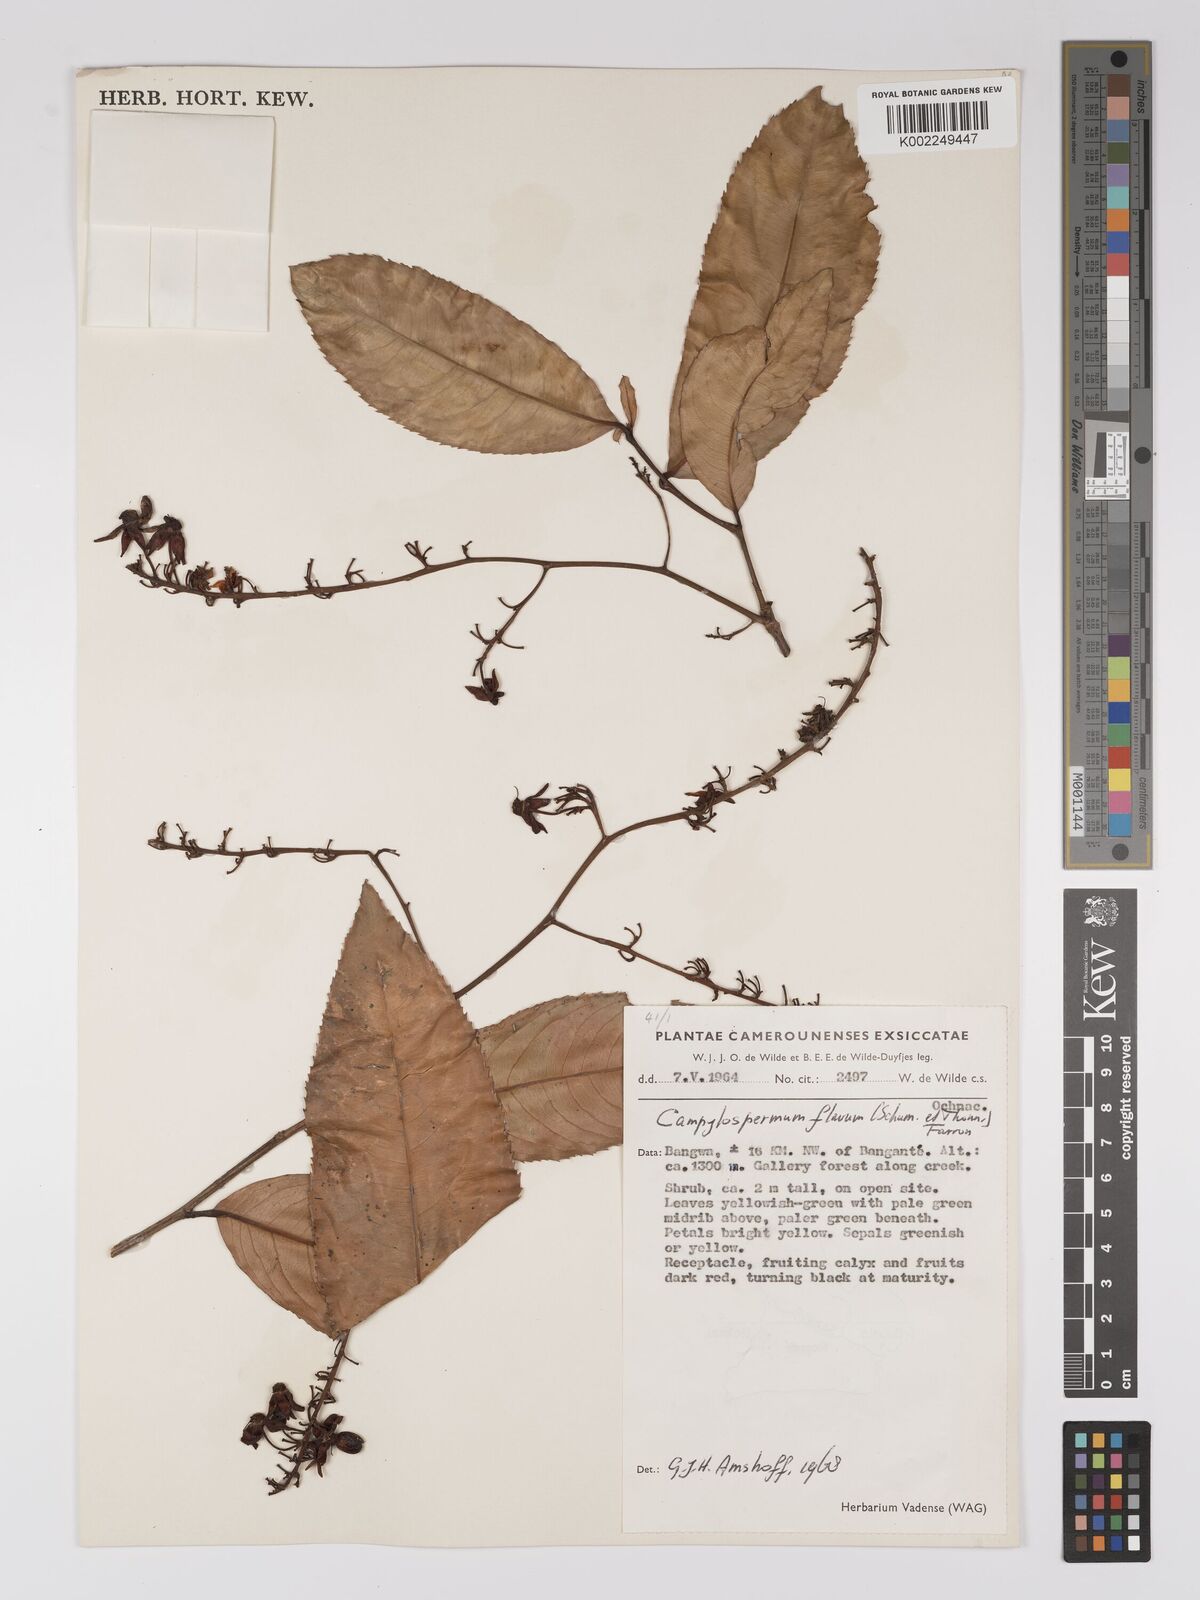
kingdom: Plantae
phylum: Tracheophyta
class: Magnoliopsida
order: Malpighiales
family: Ochnaceae
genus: Campylospermum
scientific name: Campylospermum flavum
